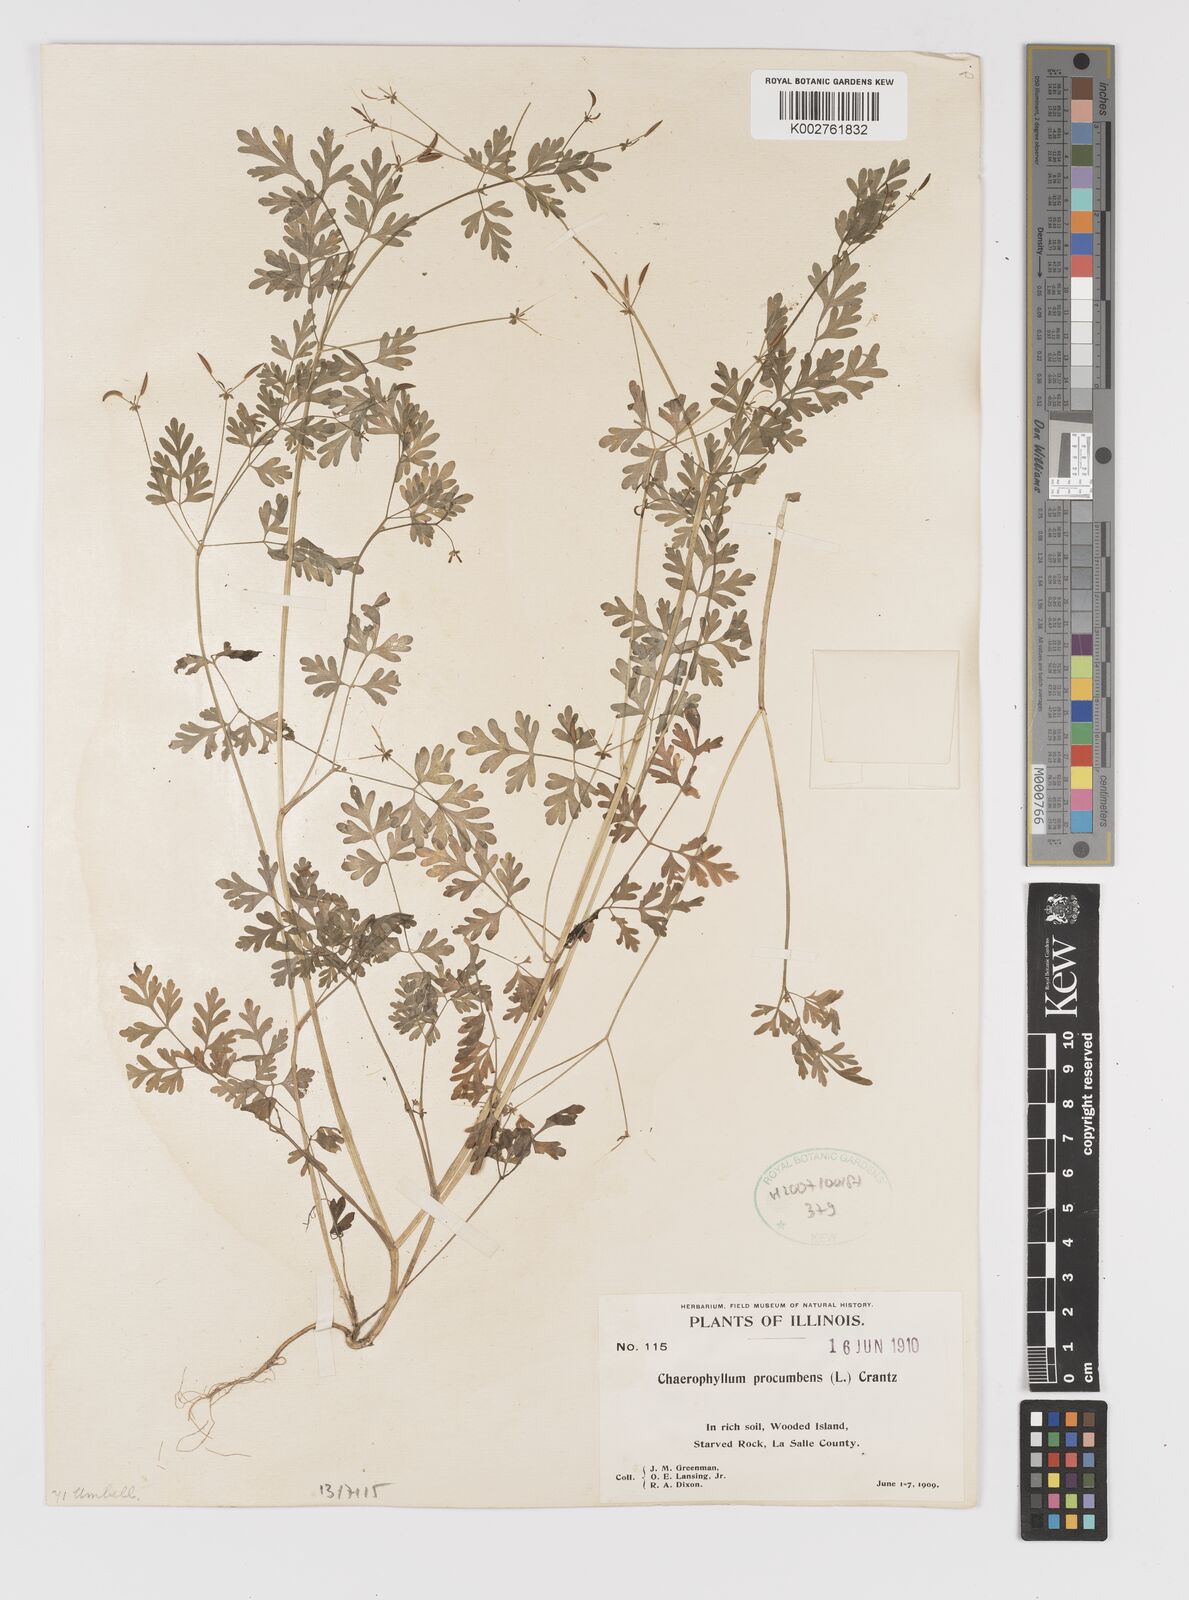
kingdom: Plantae
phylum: Tracheophyta
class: Magnoliopsida
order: Apiales
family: Apiaceae
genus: Chaerophyllum
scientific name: Chaerophyllum procumbens
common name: Spreading chervil
